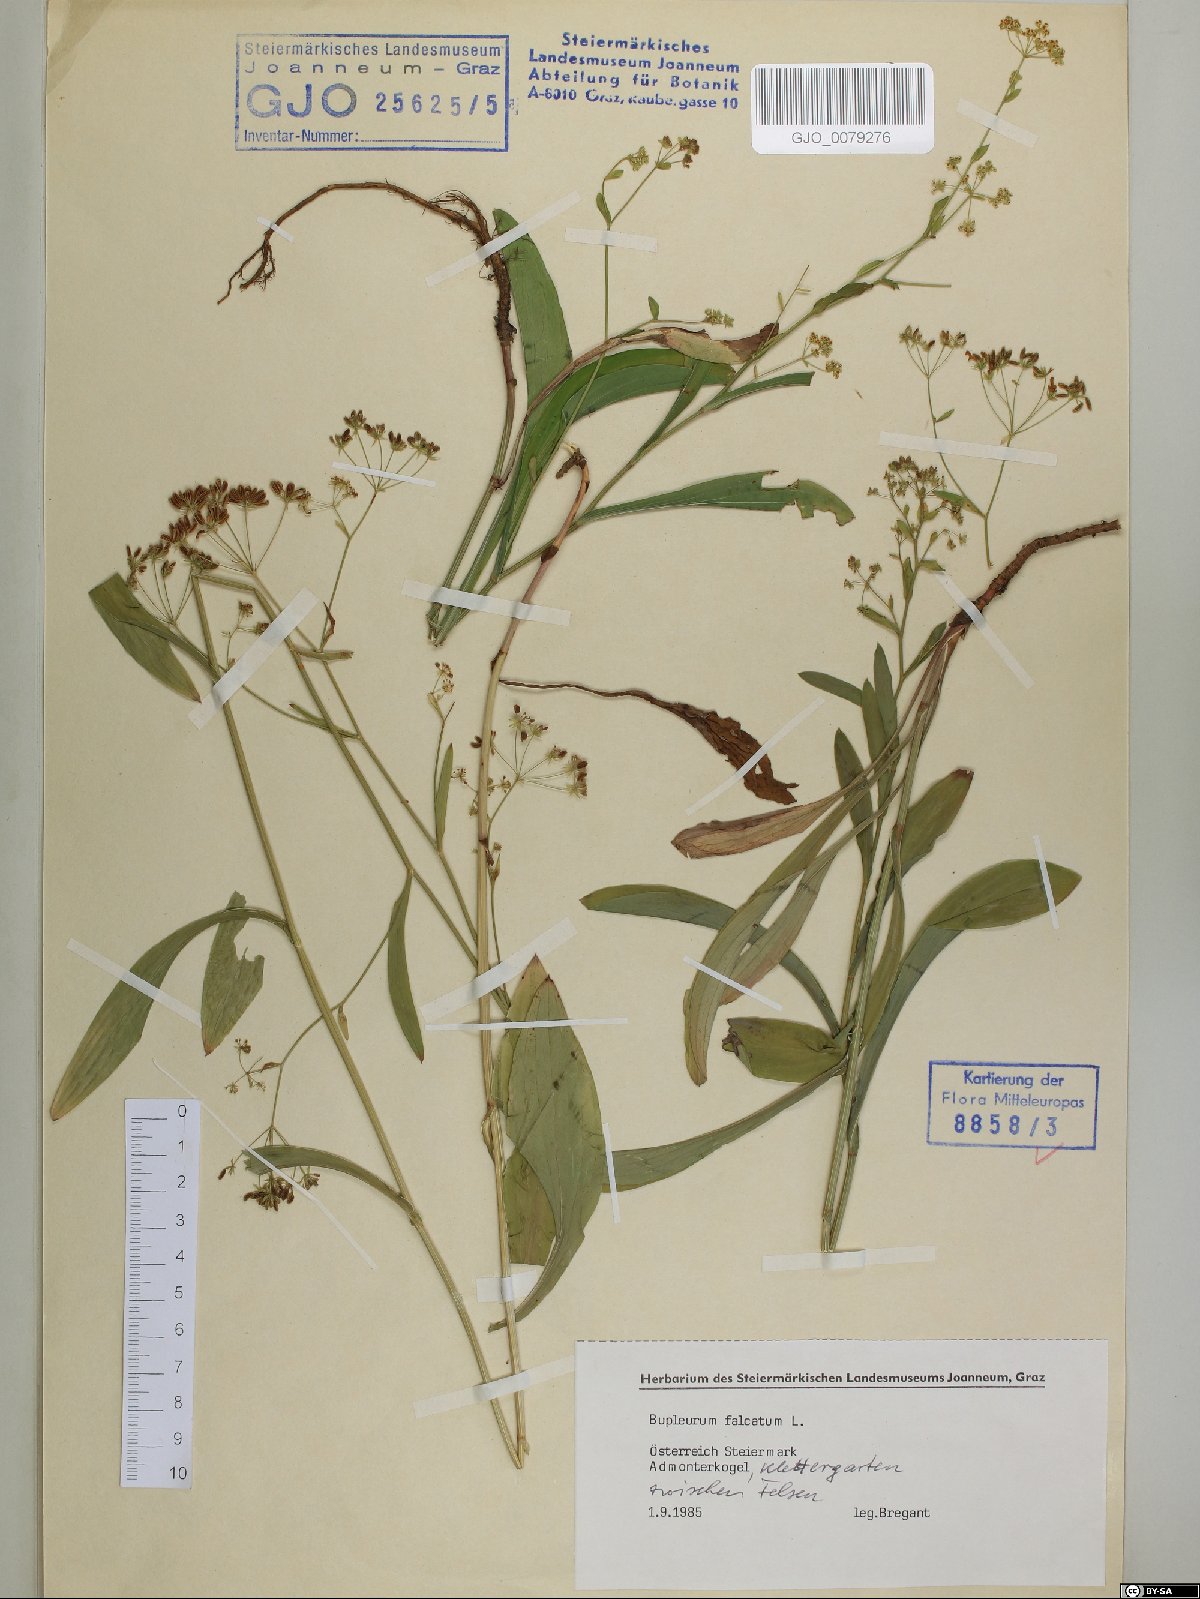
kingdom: Plantae
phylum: Tracheophyta
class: Magnoliopsida
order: Apiales
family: Apiaceae
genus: Bupleurum
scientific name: Bupleurum falcatum
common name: Sickle-leaved hare's-ear
